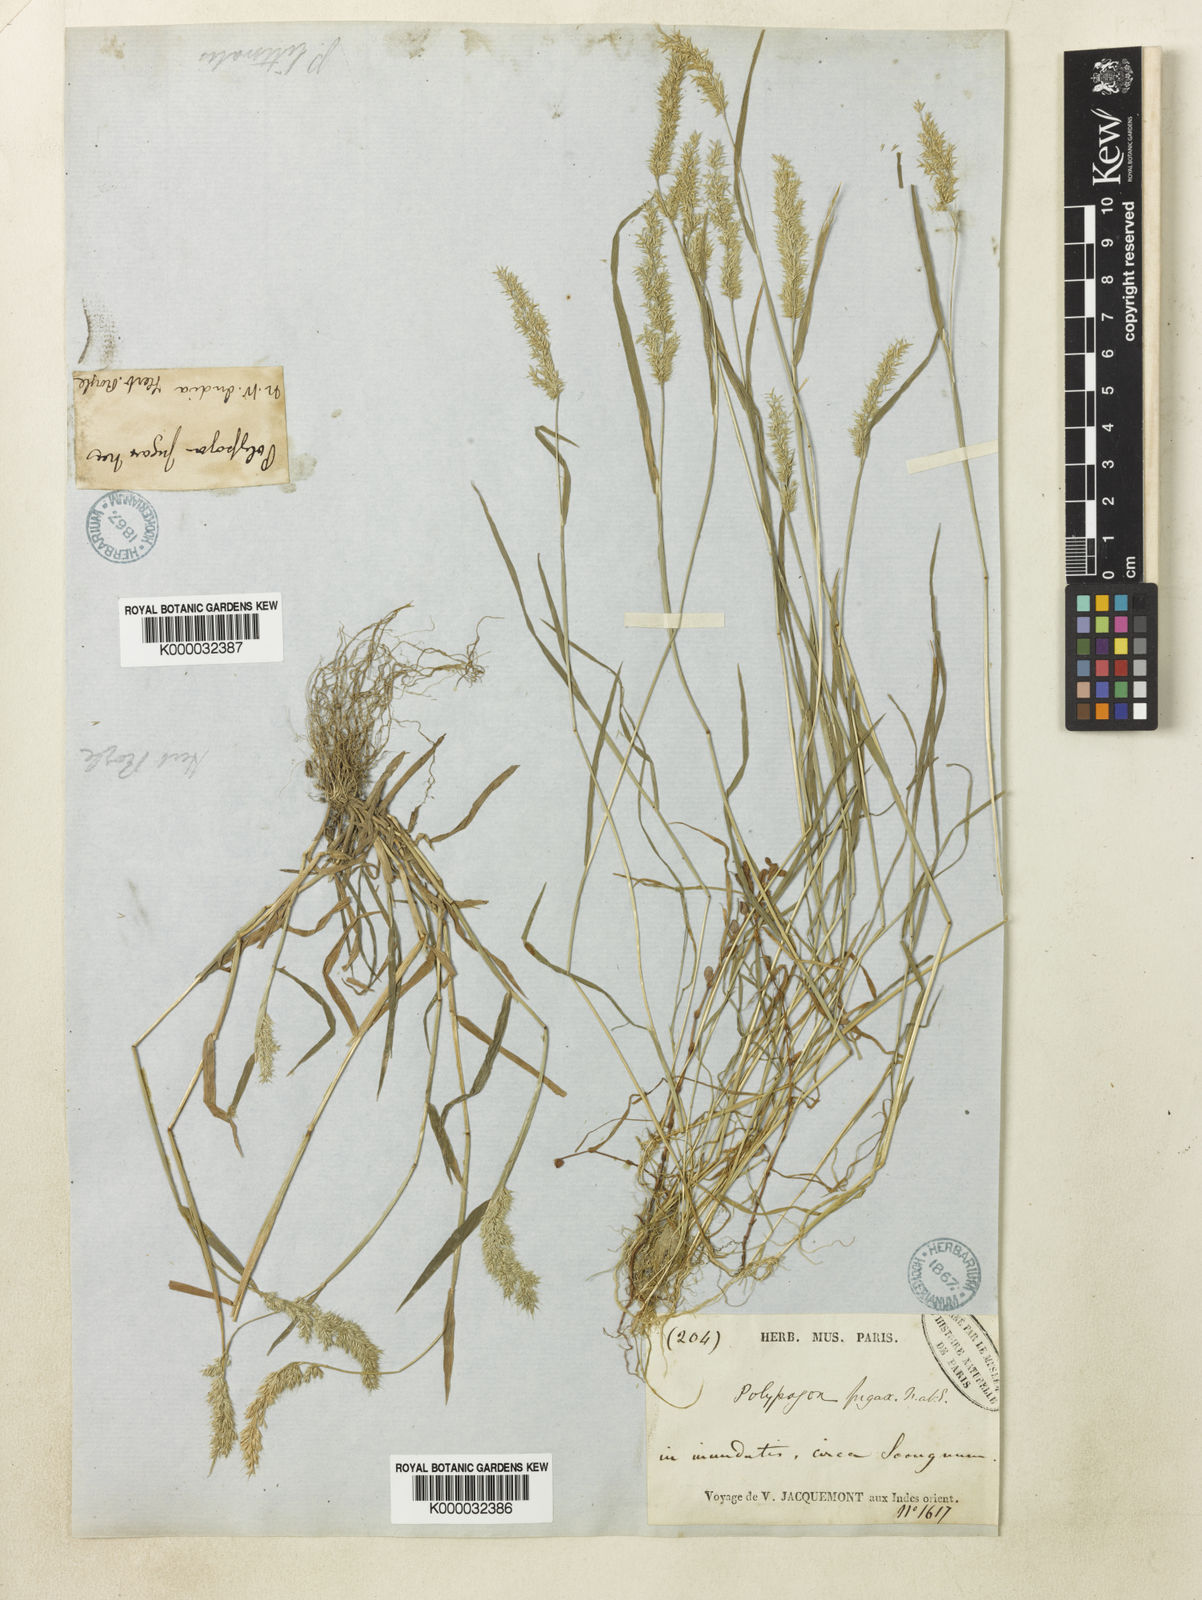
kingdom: Plantae
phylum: Tracheophyta
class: Liliopsida
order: Poales
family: Poaceae
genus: Polypogon
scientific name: Polypogon fugax
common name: Asia minor bluegrass
